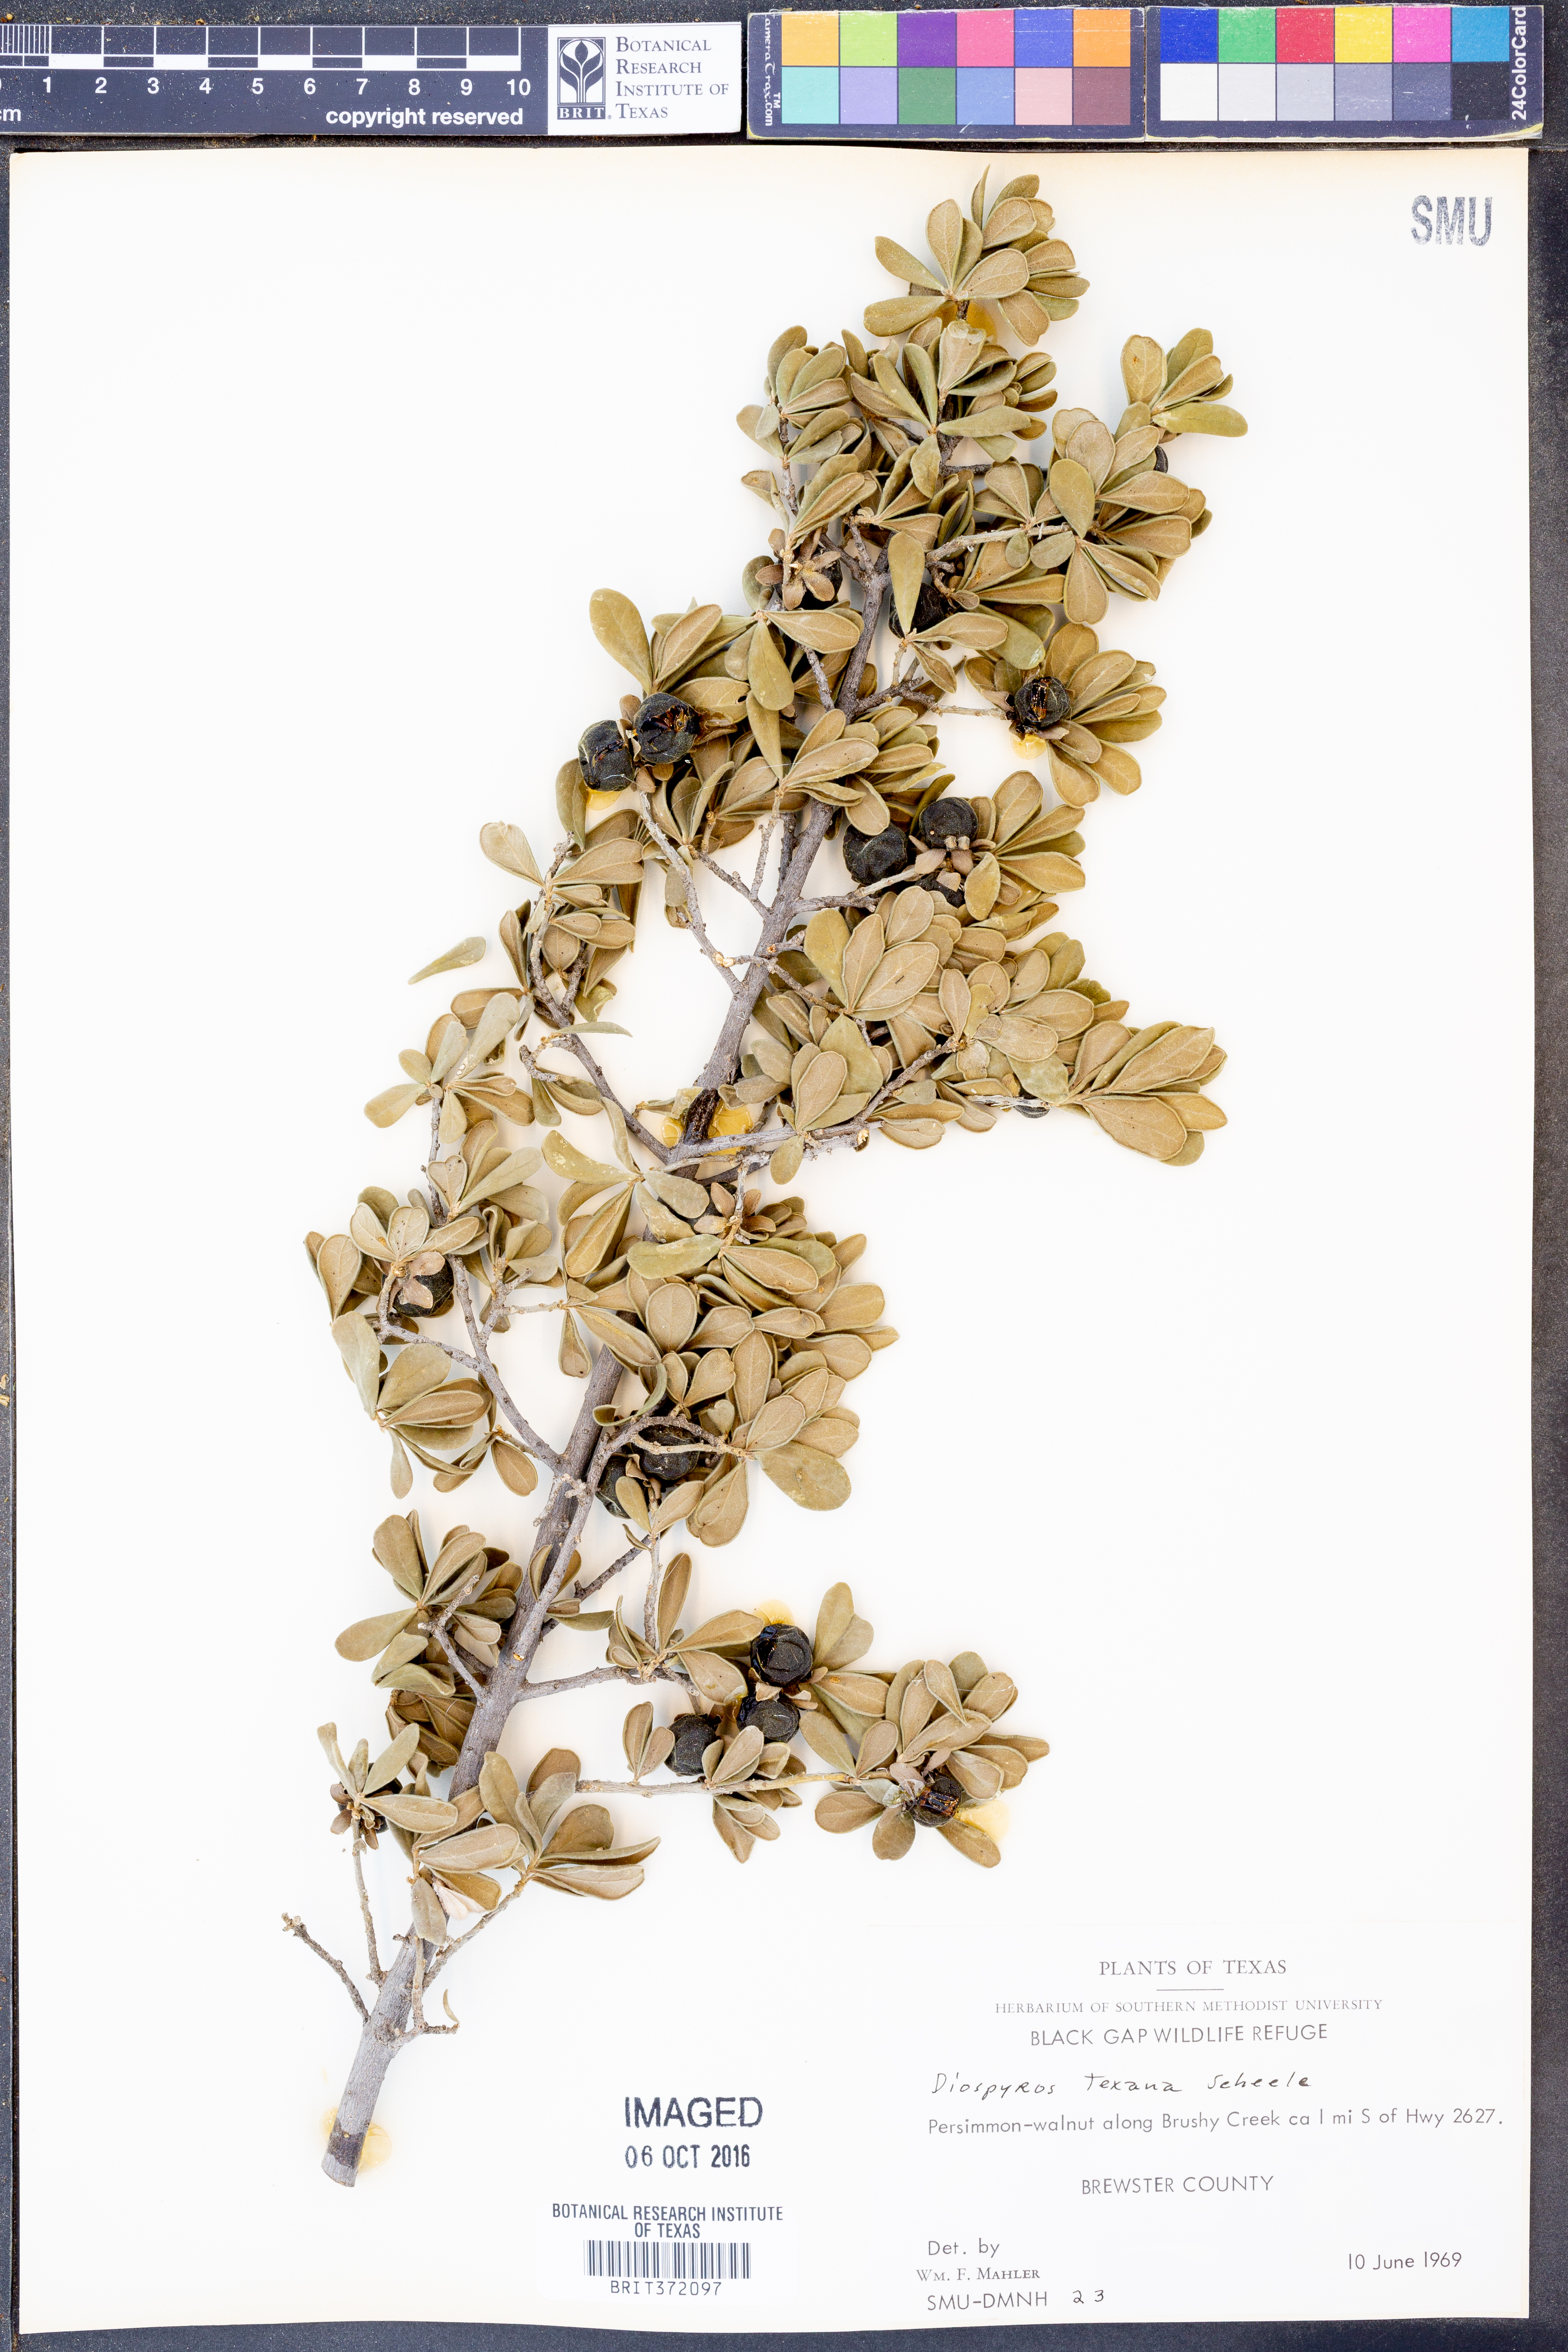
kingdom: Plantae
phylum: Tracheophyta
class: Magnoliopsida
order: Ericales
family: Ebenaceae
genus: Diospyros
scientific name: Diospyros texana
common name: Texas persimmon
